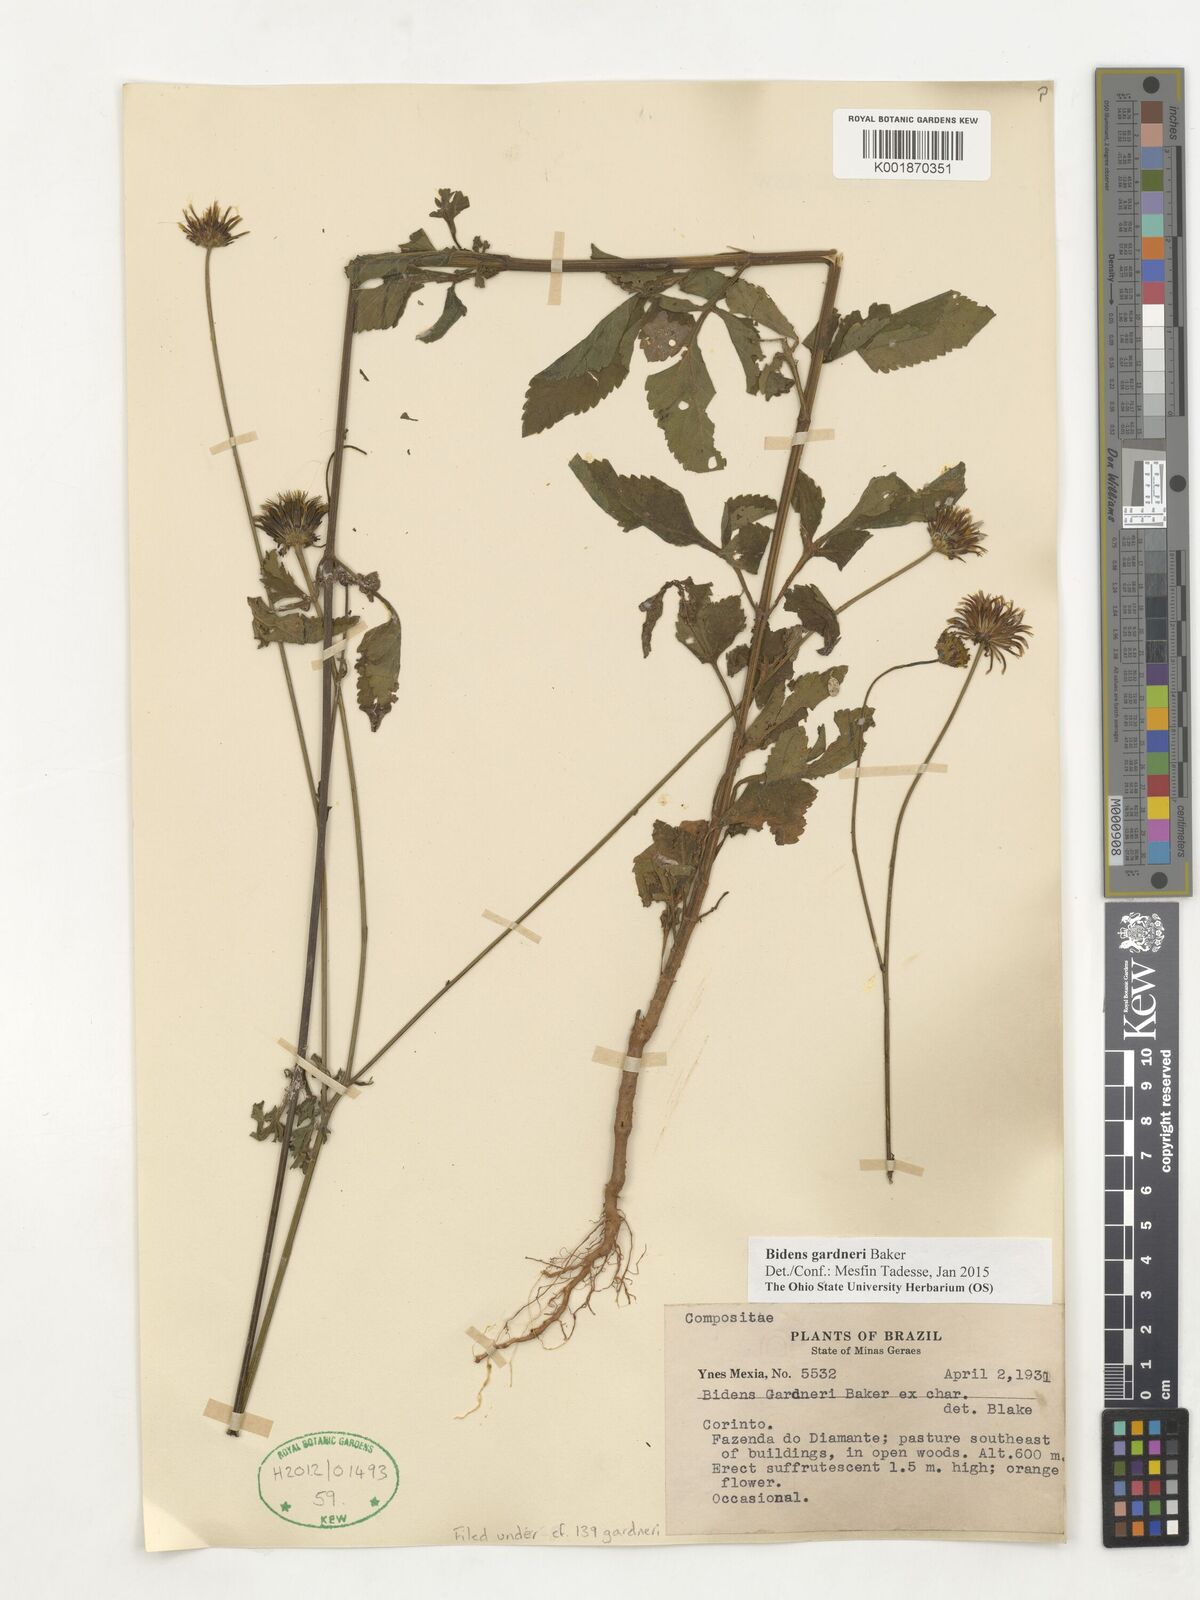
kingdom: Plantae
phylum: Tracheophyta
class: Magnoliopsida
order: Asterales
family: Asteraceae
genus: Bidens
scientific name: Bidens gardneri
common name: Ridge beggartick
